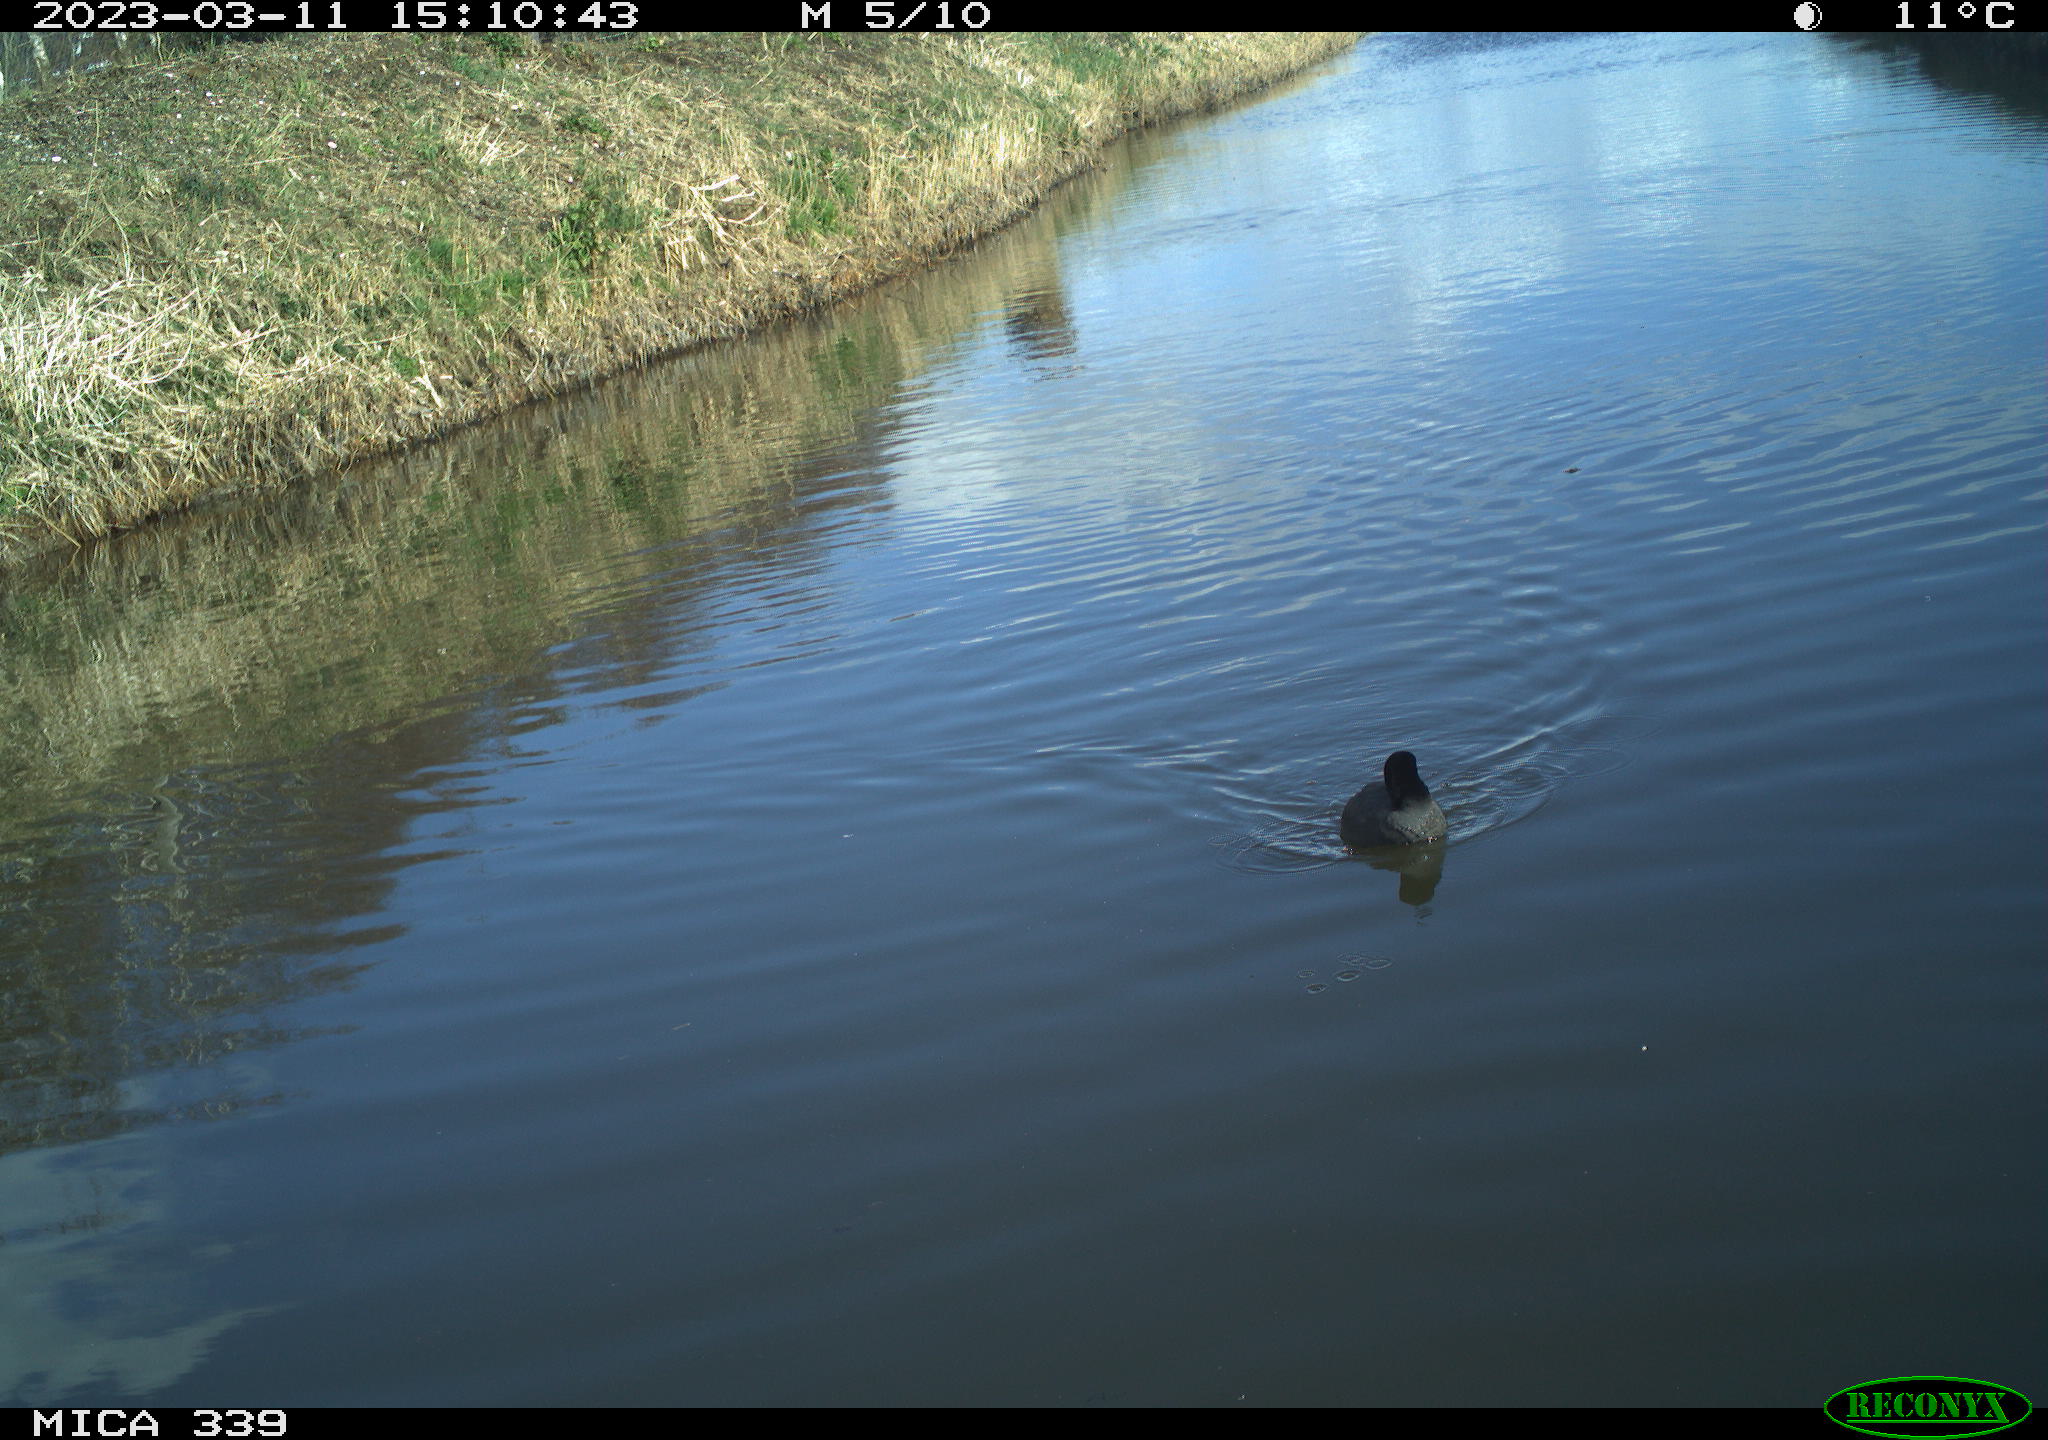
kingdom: Animalia
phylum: Chordata
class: Aves
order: Gruiformes
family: Rallidae
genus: Gallinula
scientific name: Gallinula chloropus
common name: Common moorhen
